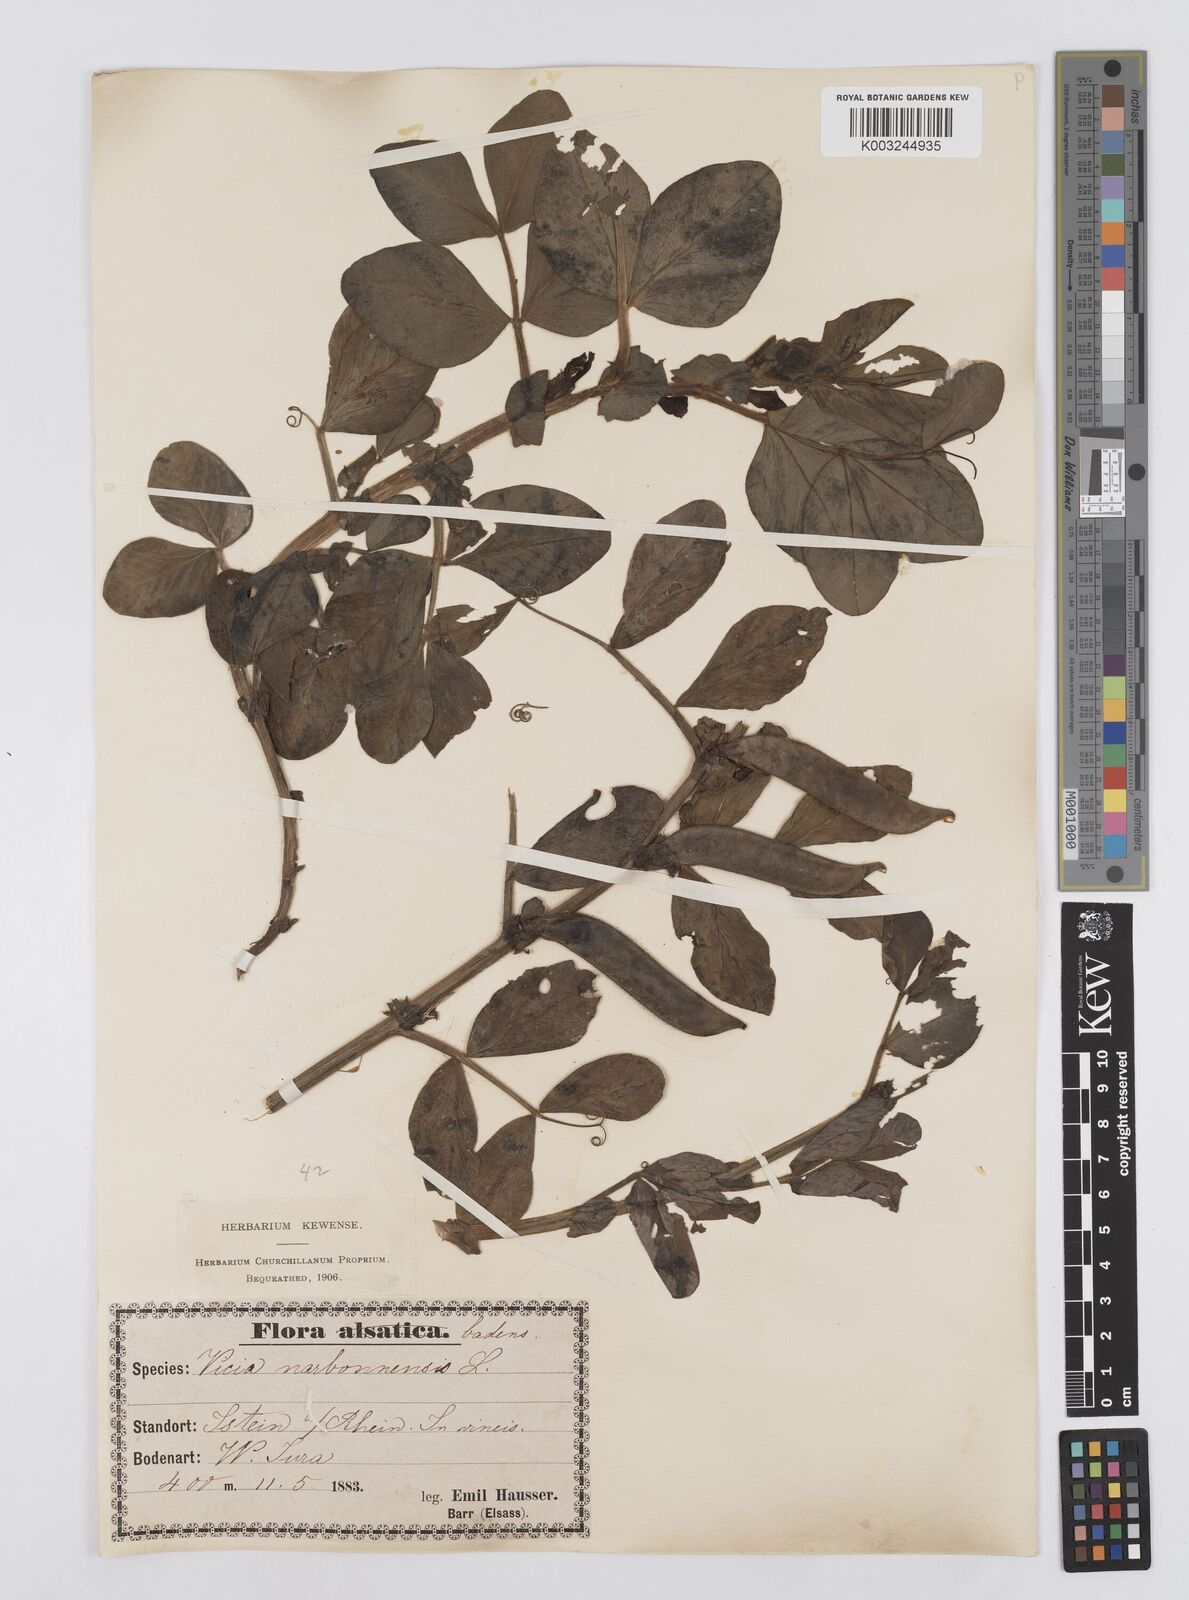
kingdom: Plantae
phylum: Tracheophyta
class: Magnoliopsida
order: Fabales
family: Fabaceae
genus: Vicia
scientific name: Vicia narbonensis
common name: Narbonne vetch
